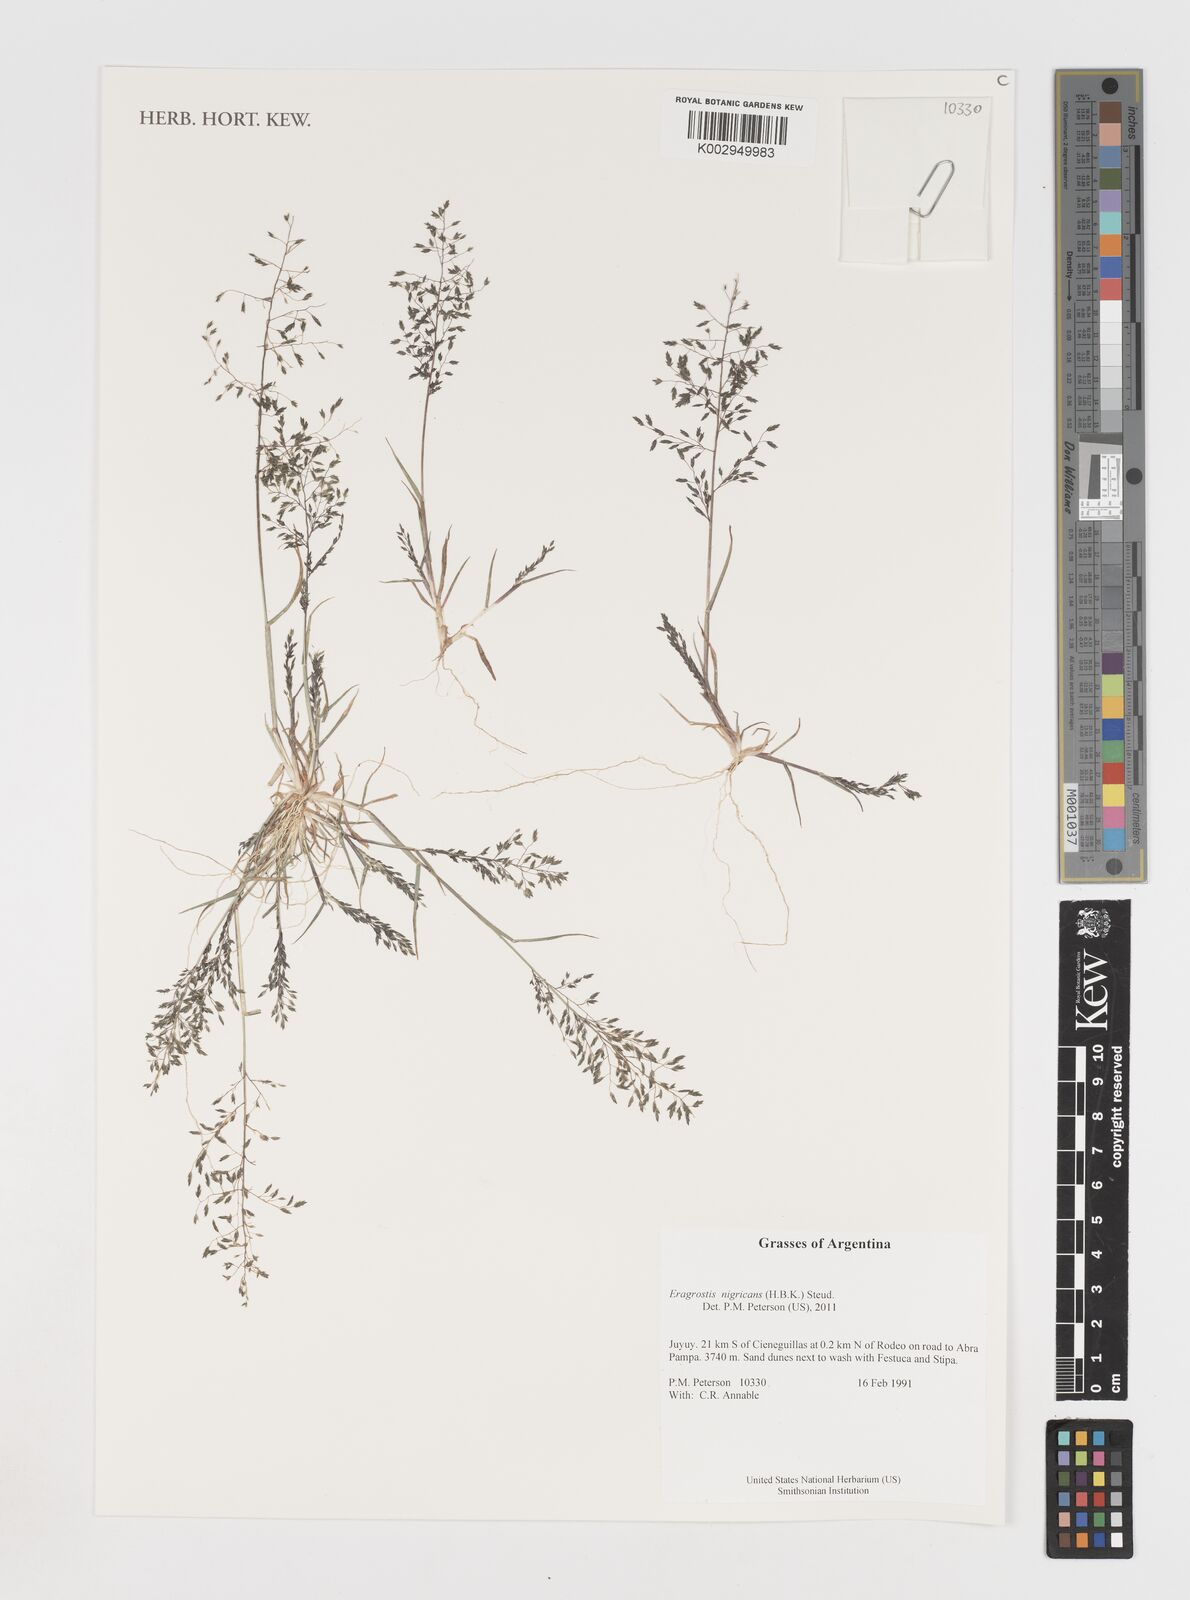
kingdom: Plantae
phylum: Tracheophyta
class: Liliopsida
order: Poales
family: Poaceae
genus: Eragrostis
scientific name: Eragrostis nigricans
